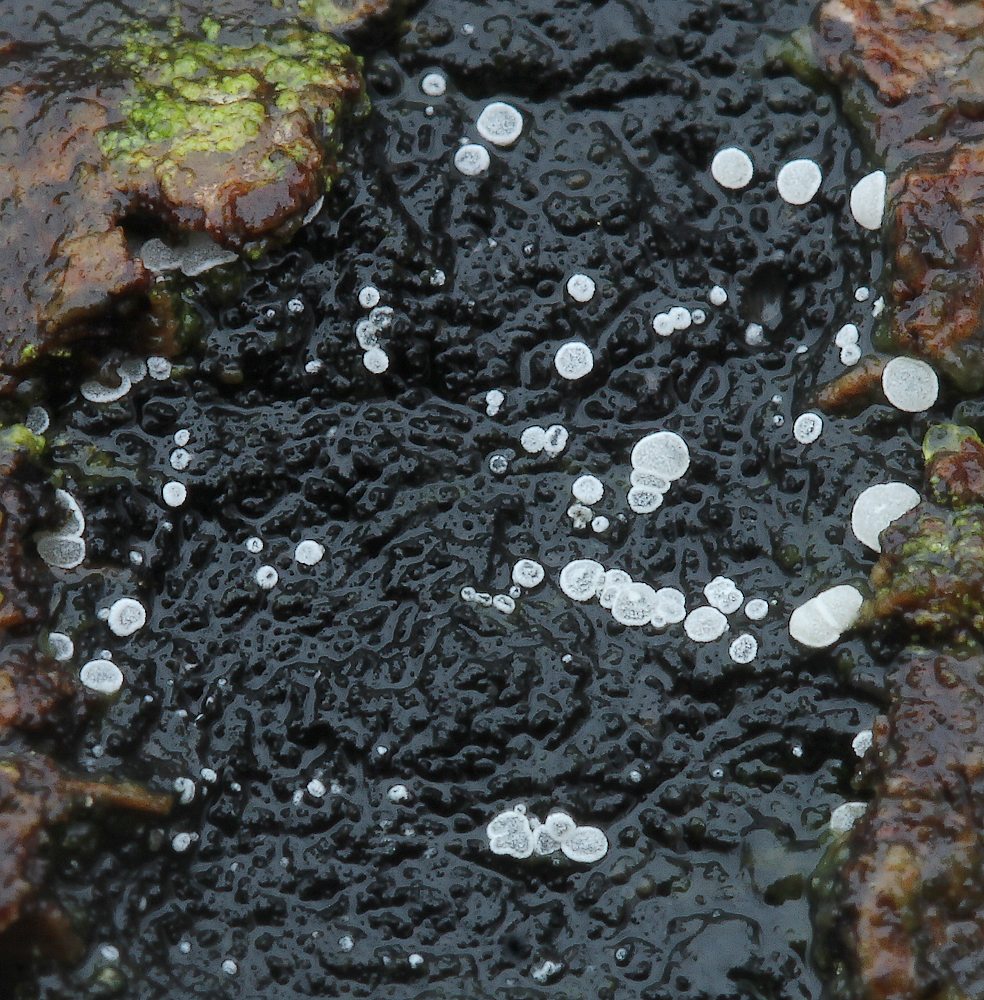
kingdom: Fungi
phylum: Ascomycota
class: Leotiomycetes
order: Helotiales
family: Hyaloscyphaceae
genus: Polydesmia
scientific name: Polydesmia pruinosa
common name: dunskive
